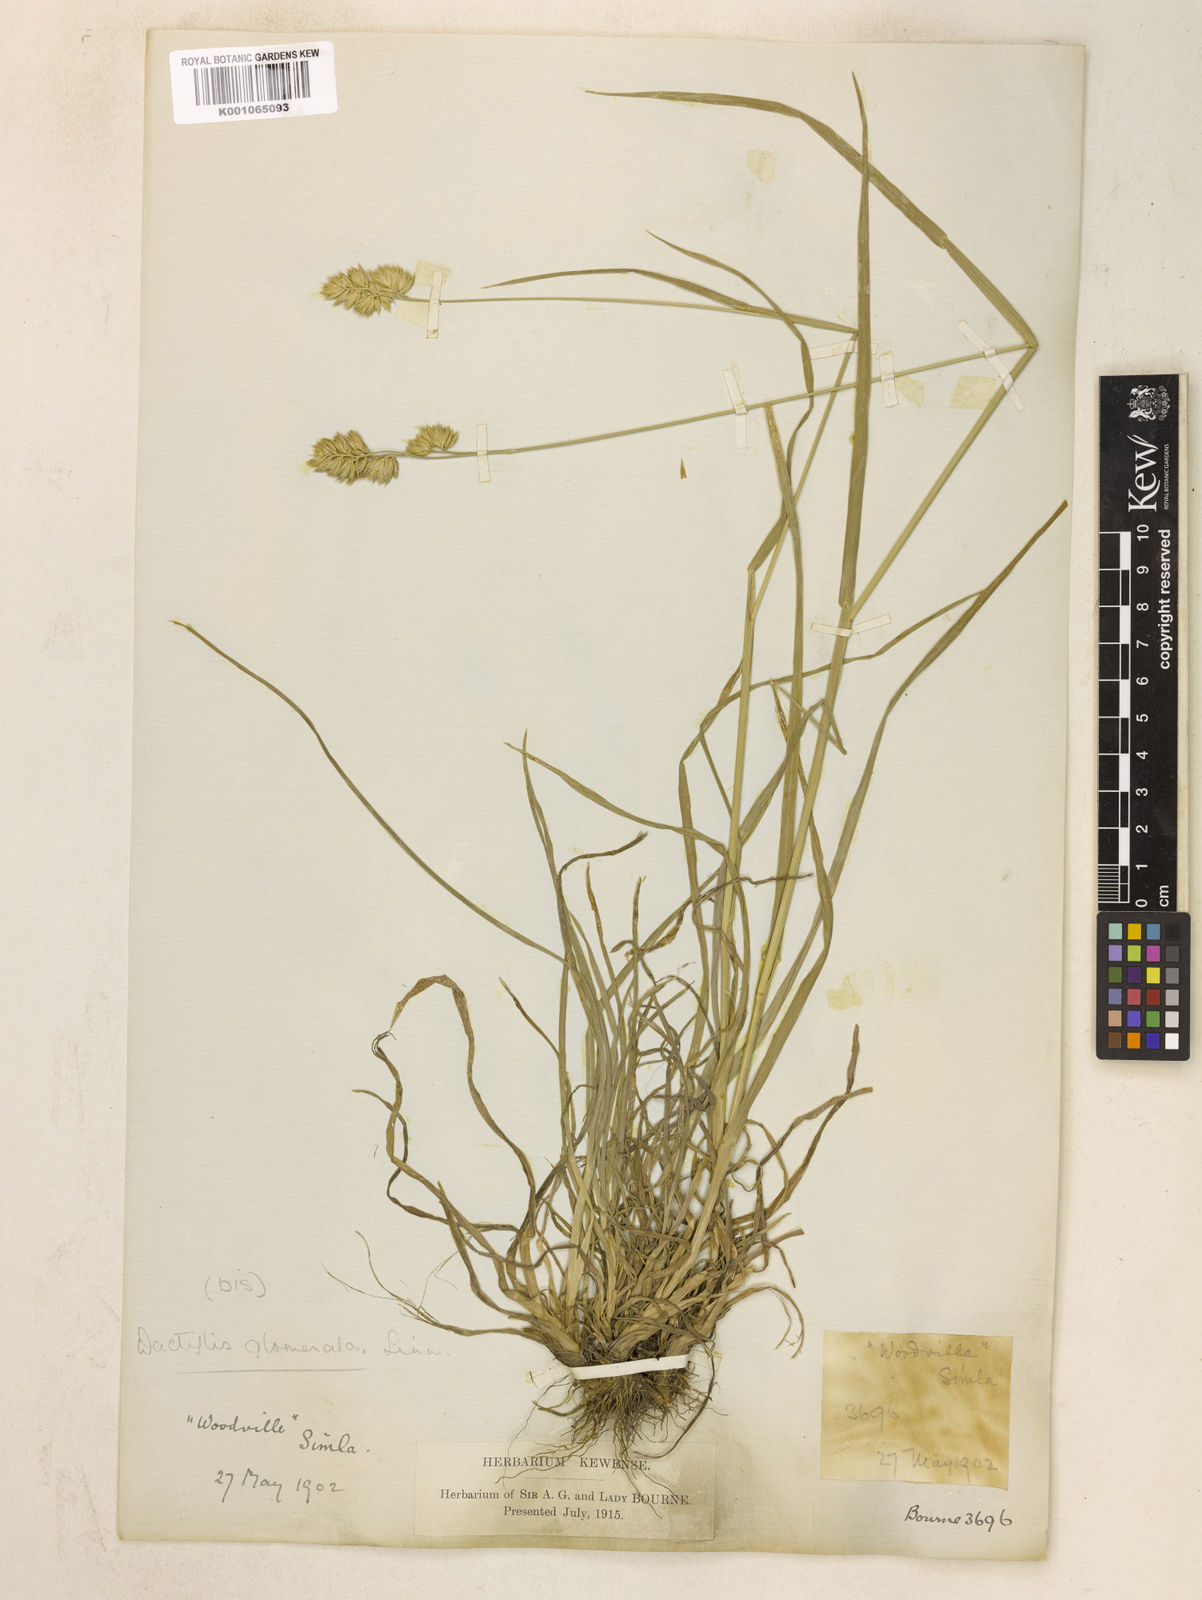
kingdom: Plantae
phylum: Tracheophyta
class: Liliopsida
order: Poales
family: Poaceae
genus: Dactylis
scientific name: Dactylis glomerata
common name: Orchardgrass
